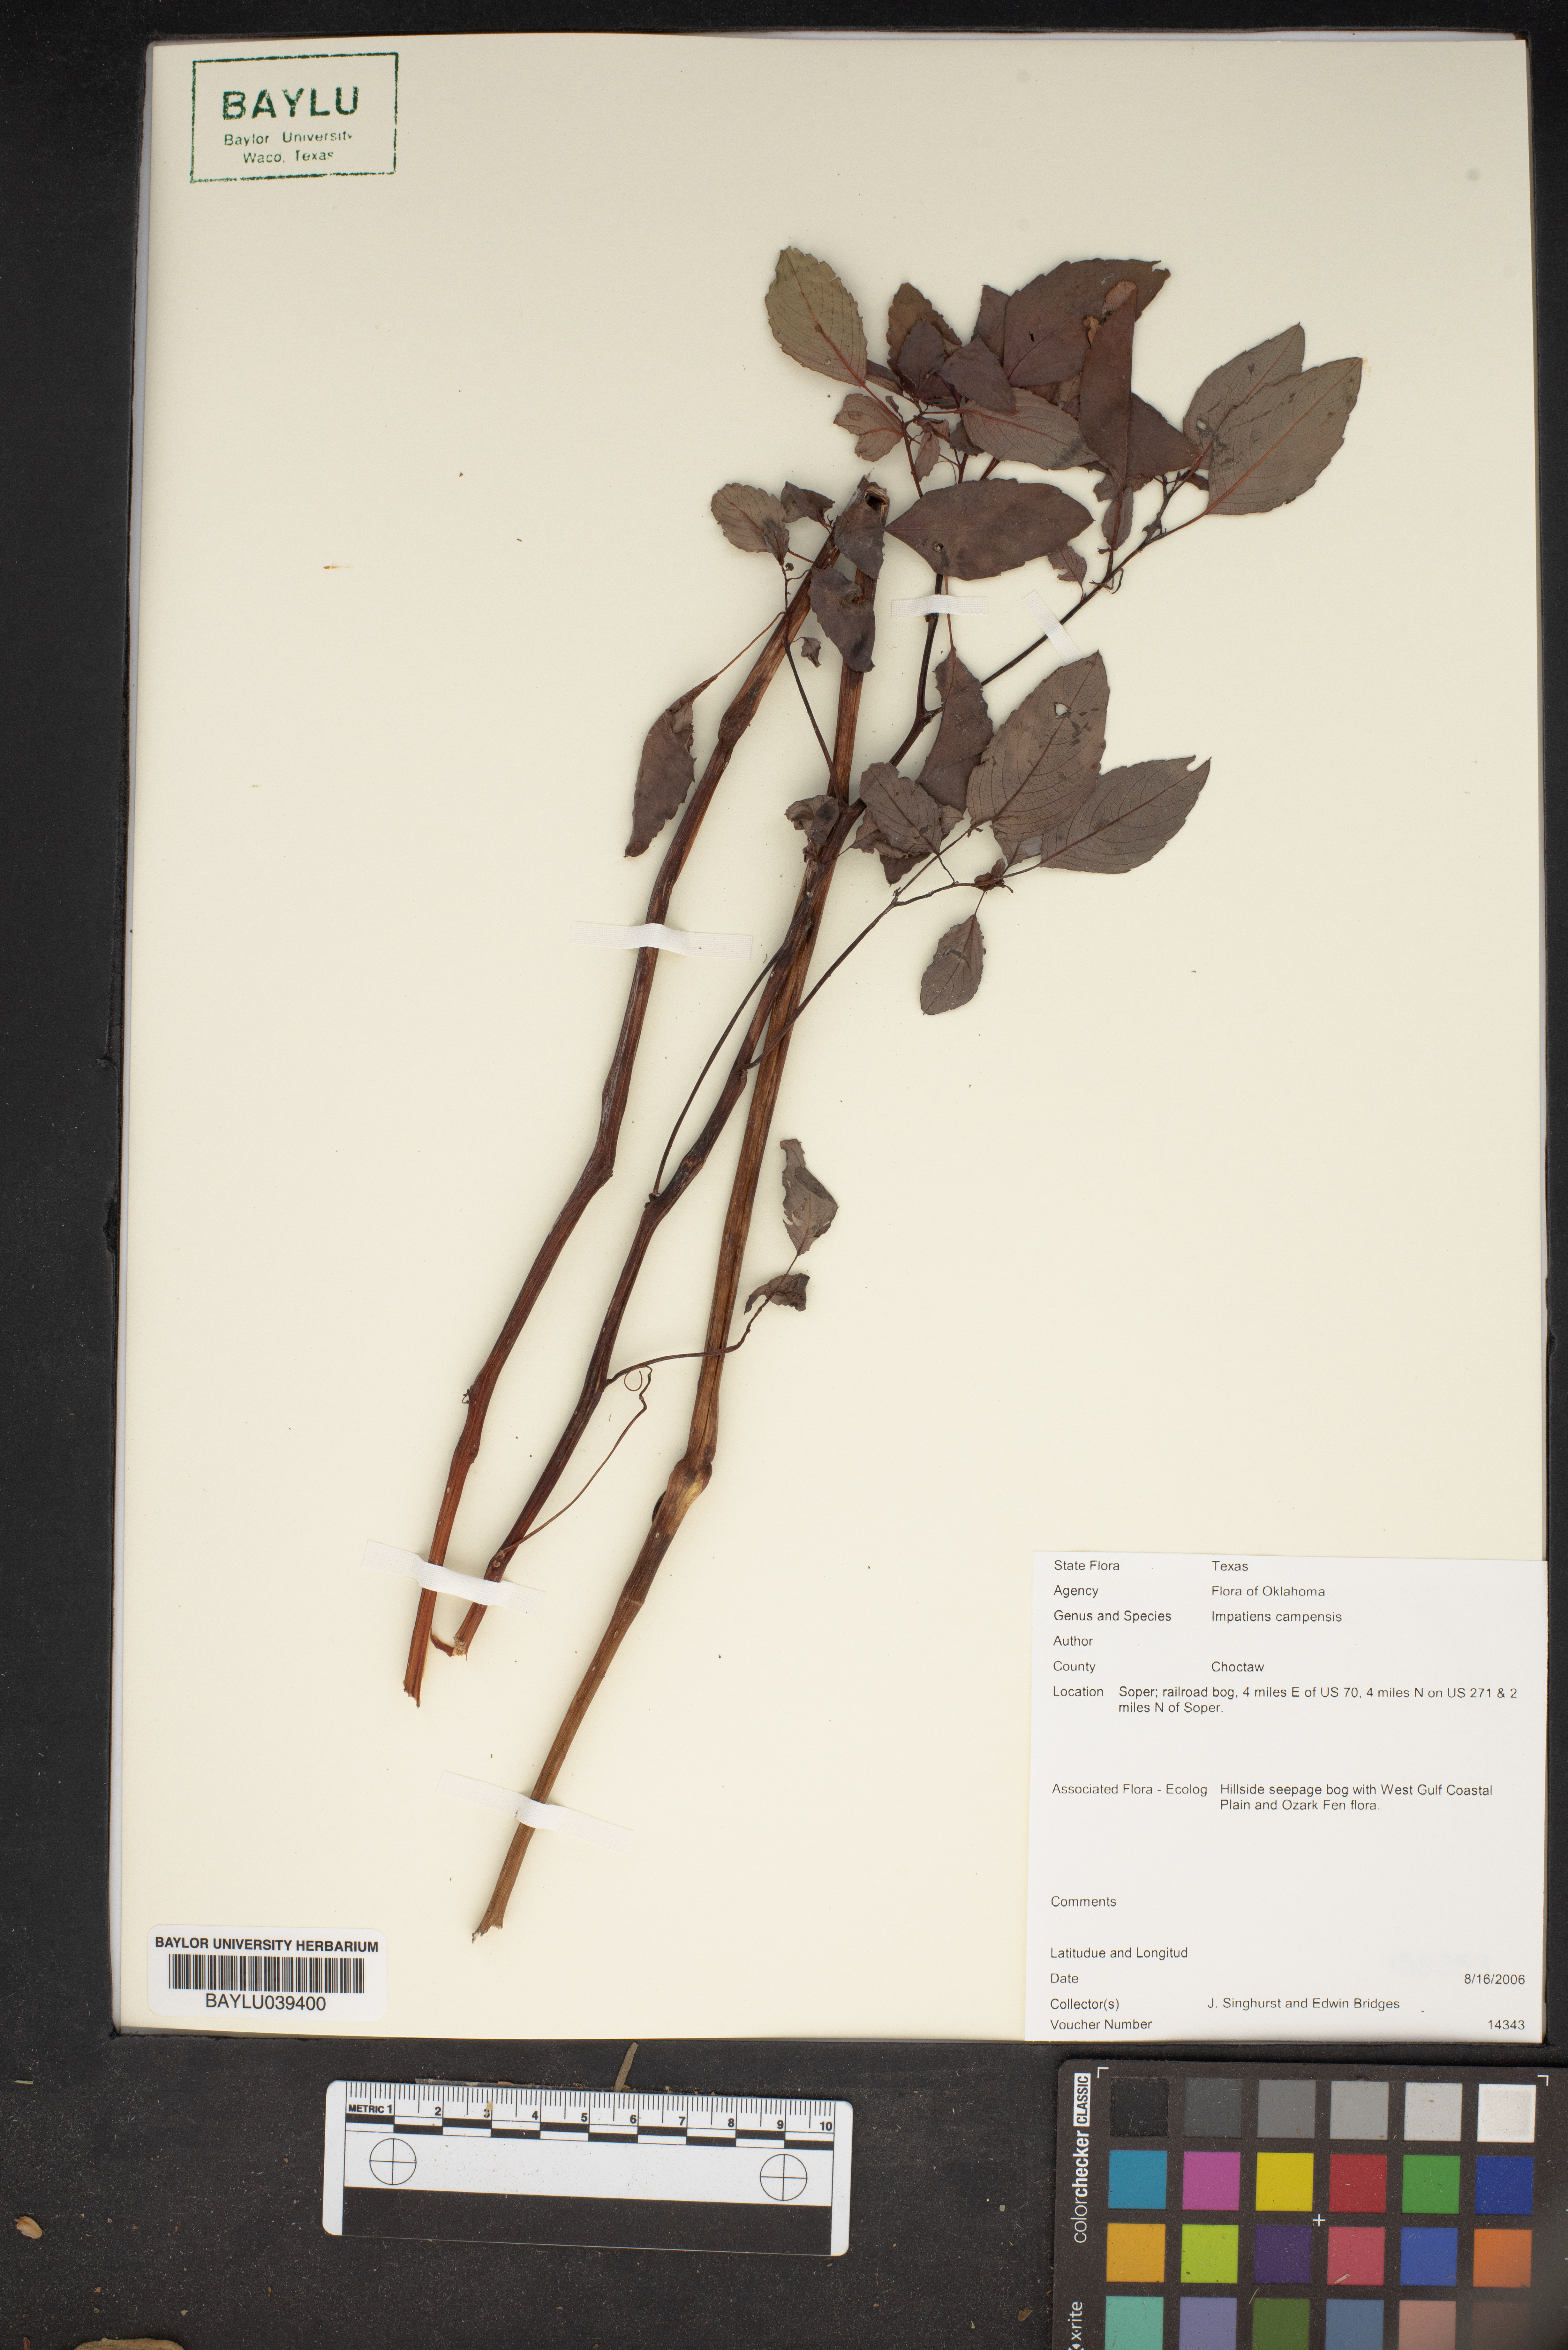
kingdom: Plantae
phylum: Tracheophyta
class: Magnoliopsida
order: Ericales
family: Balsaminaceae
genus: Impatiens
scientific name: Impatiens campanulata
